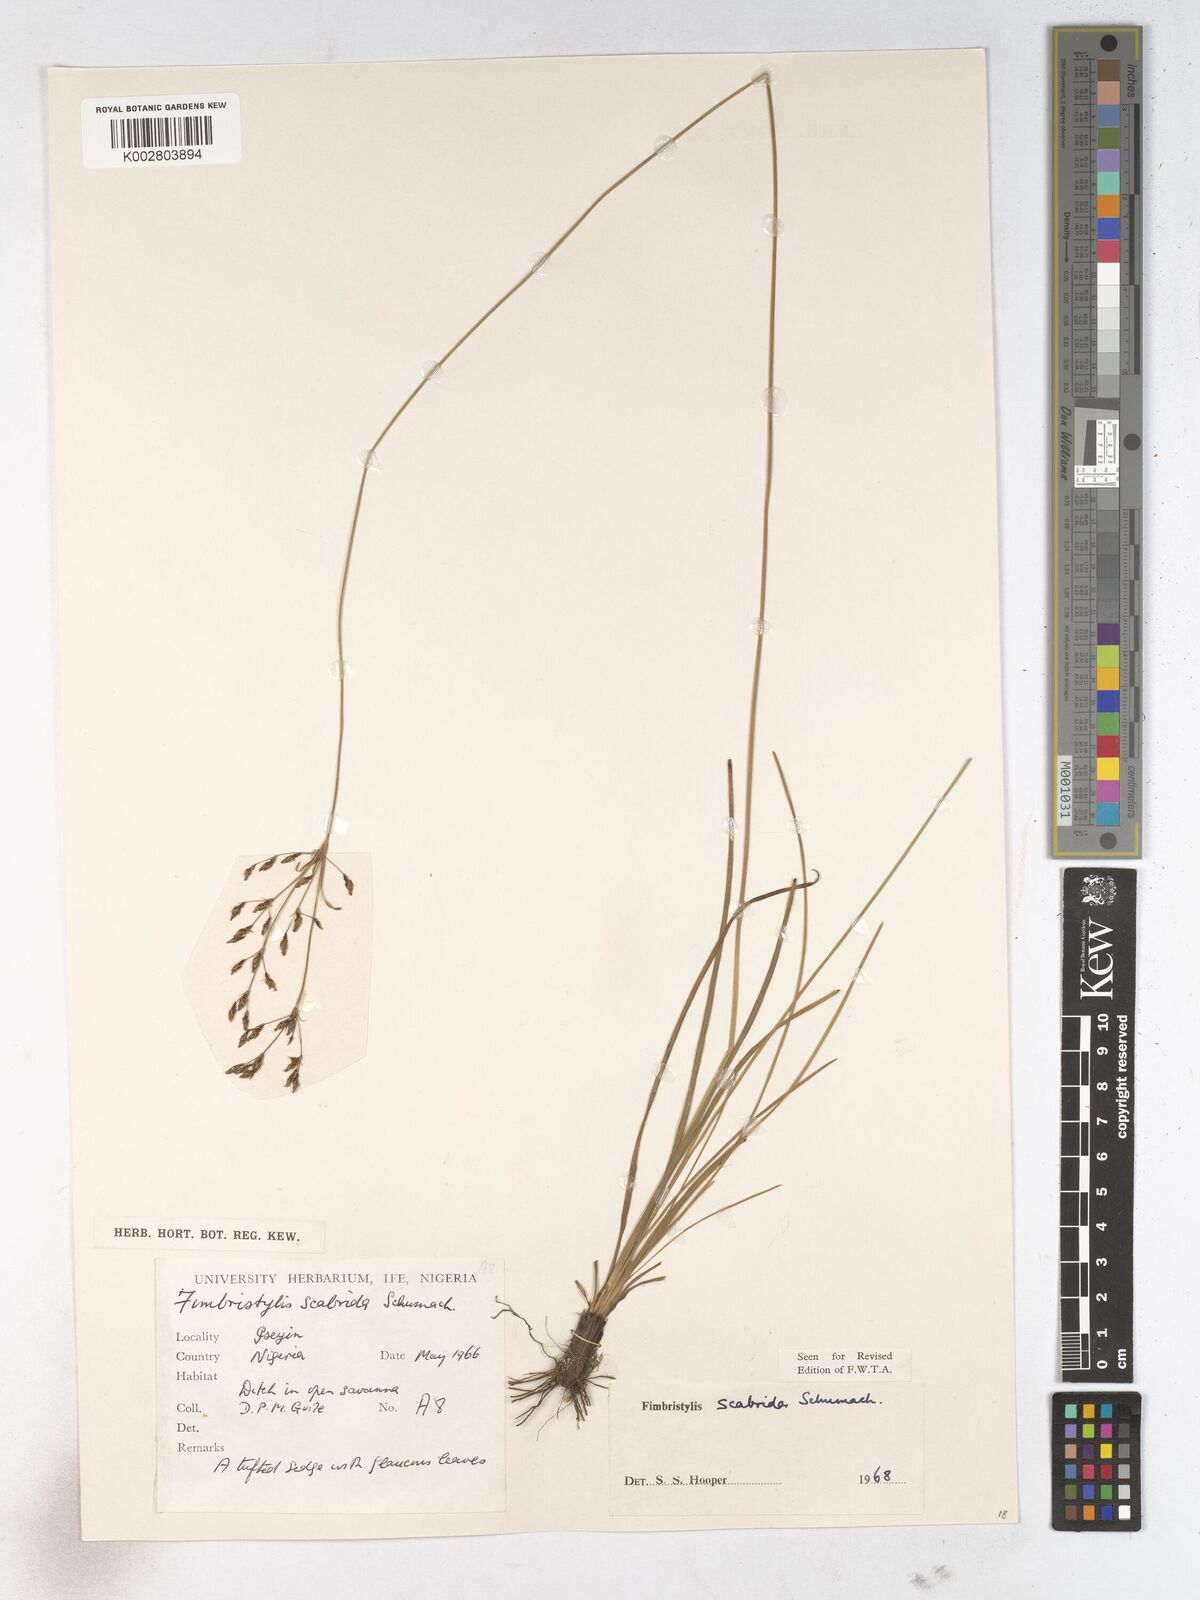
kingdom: Plantae
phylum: Tracheophyta
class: Liliopsida
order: Poales
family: Cyperaceae
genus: Fimbristylis
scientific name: Fimbristylis scabrida
